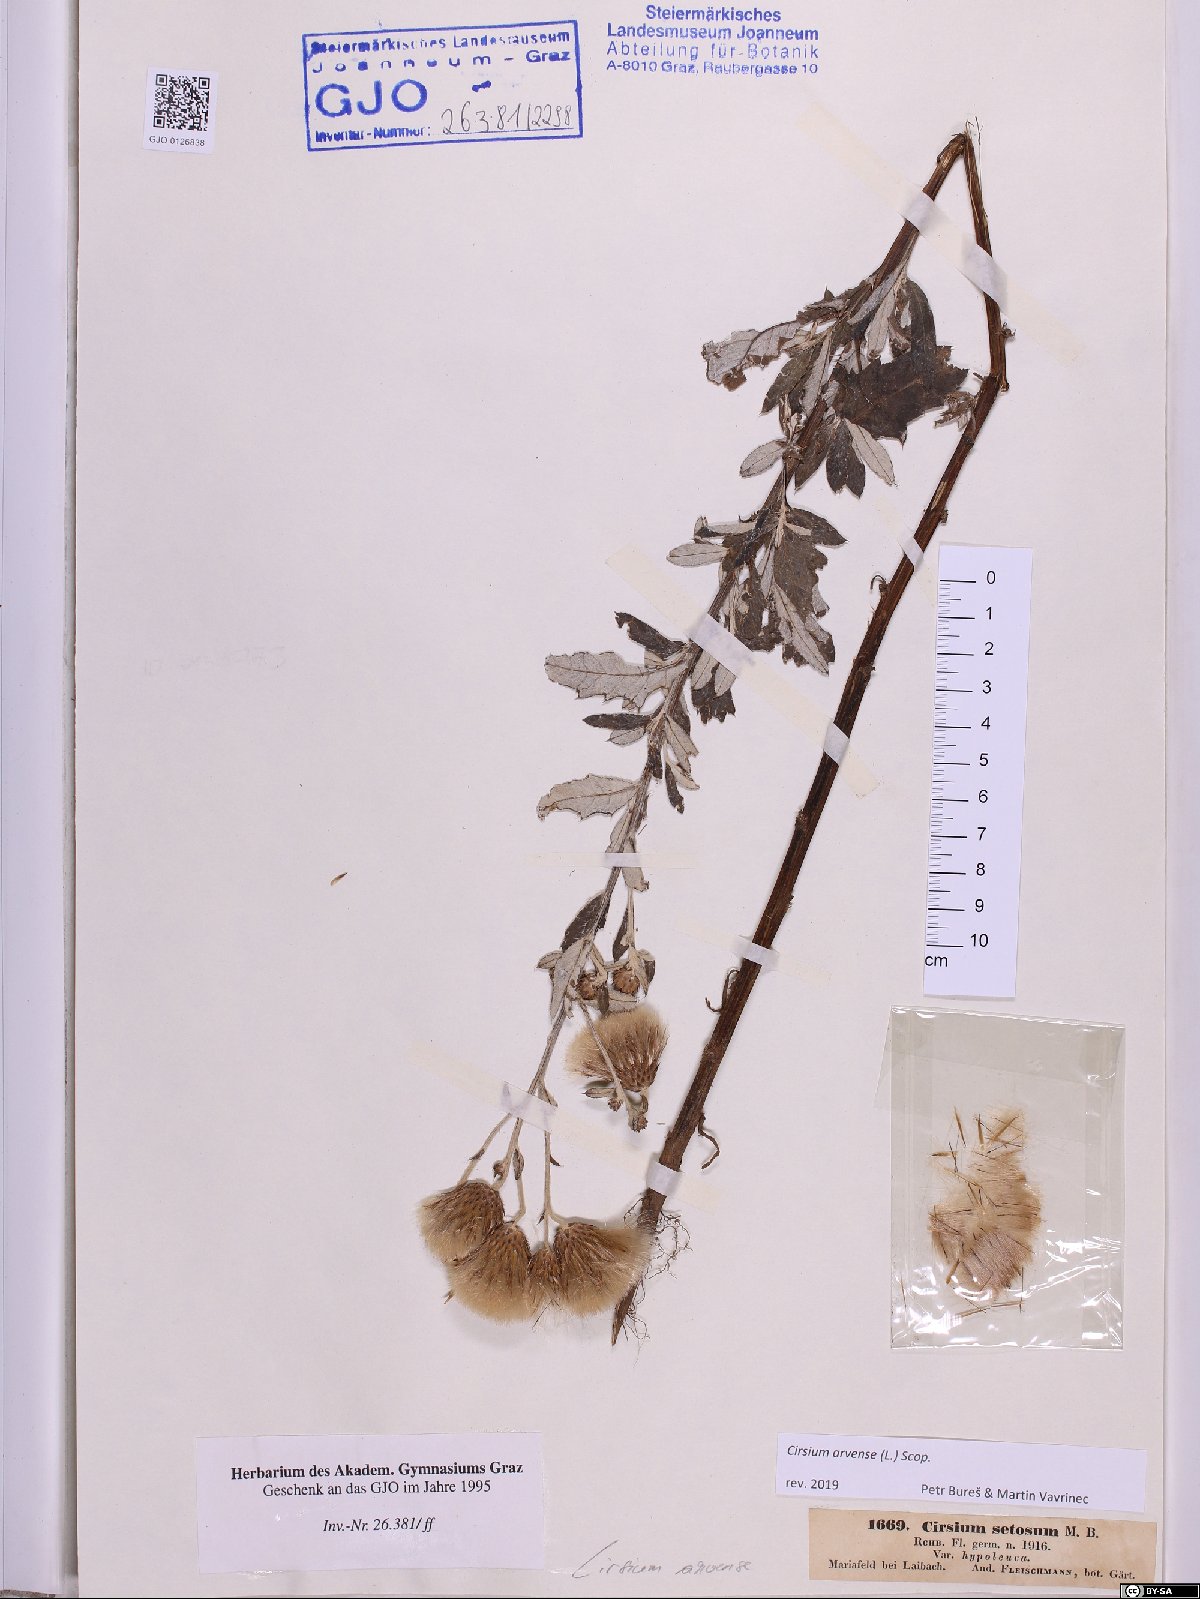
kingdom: Plantae
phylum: Tracheophyta
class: Magnoliopsida
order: Asterales
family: Asteraceae
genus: Cirsium
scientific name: Cirsium arvense
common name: Creeping thistle
